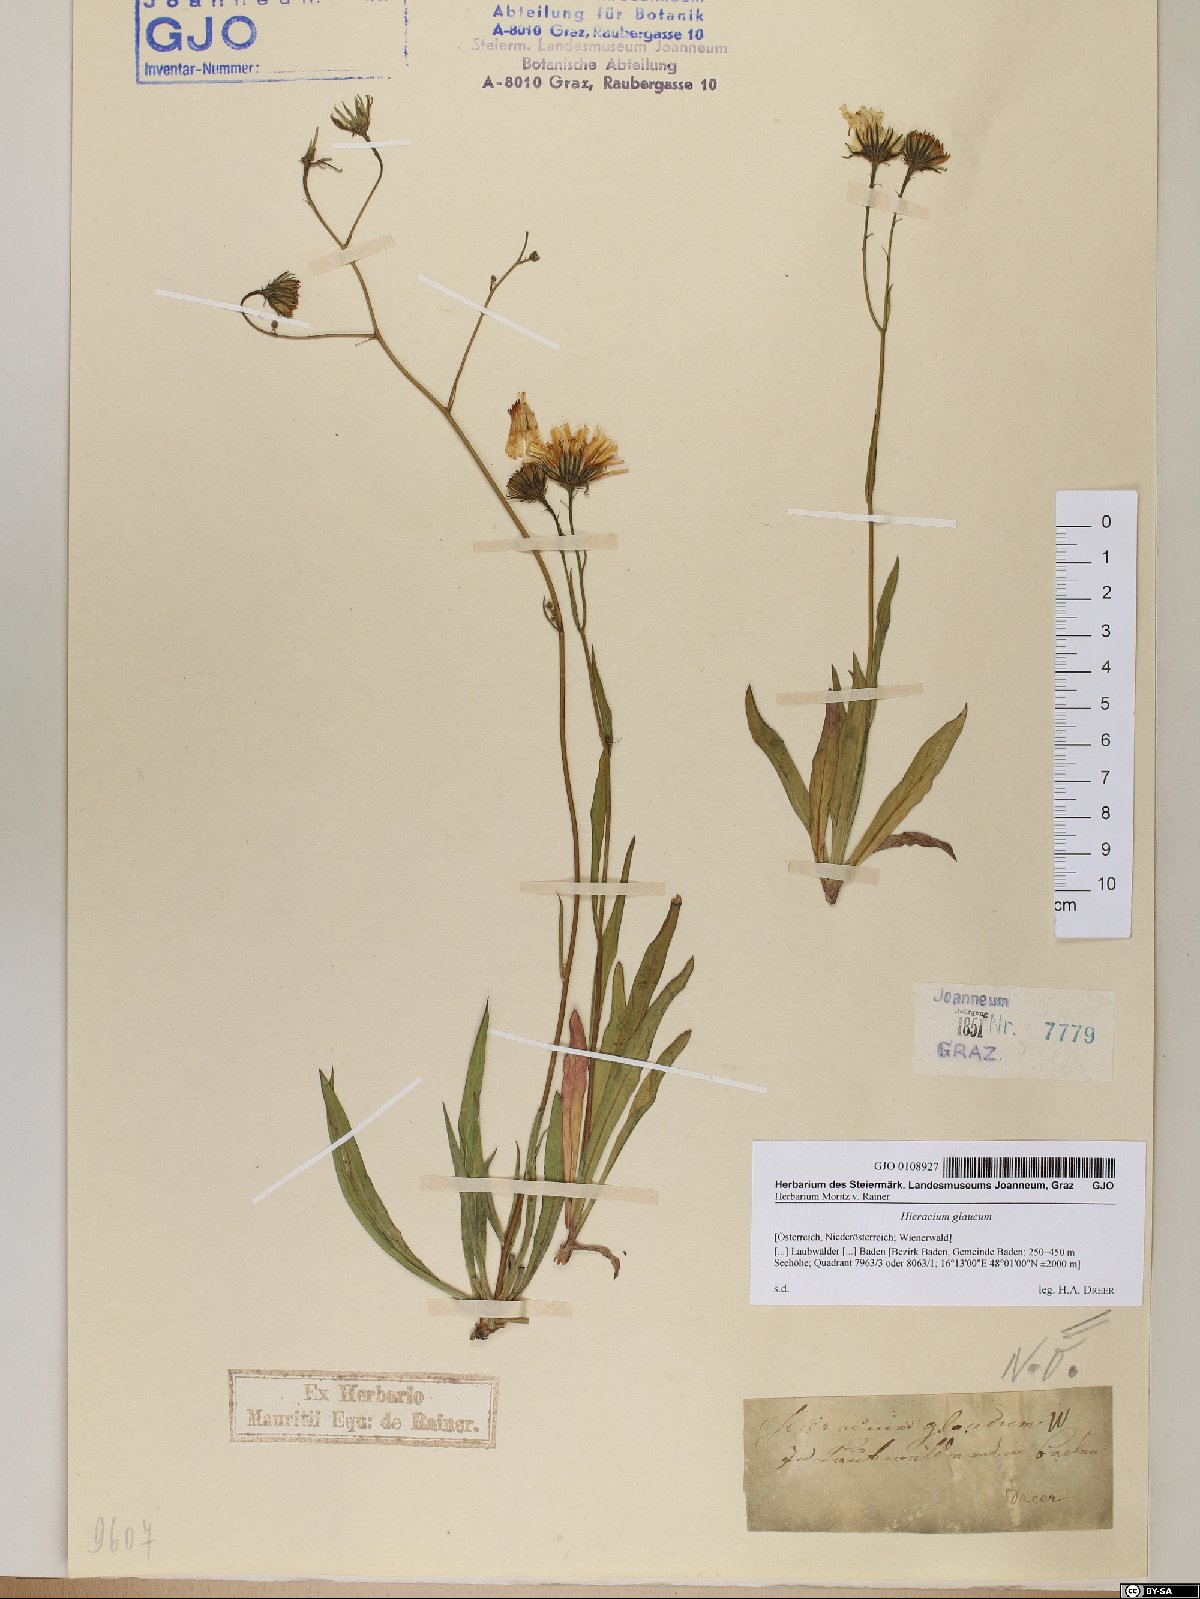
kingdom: Plantae
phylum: Tracheophyta
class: Magnoliopsida
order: Asterales
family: Asteraceae
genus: Hieracium
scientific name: Hieracium glaucum
